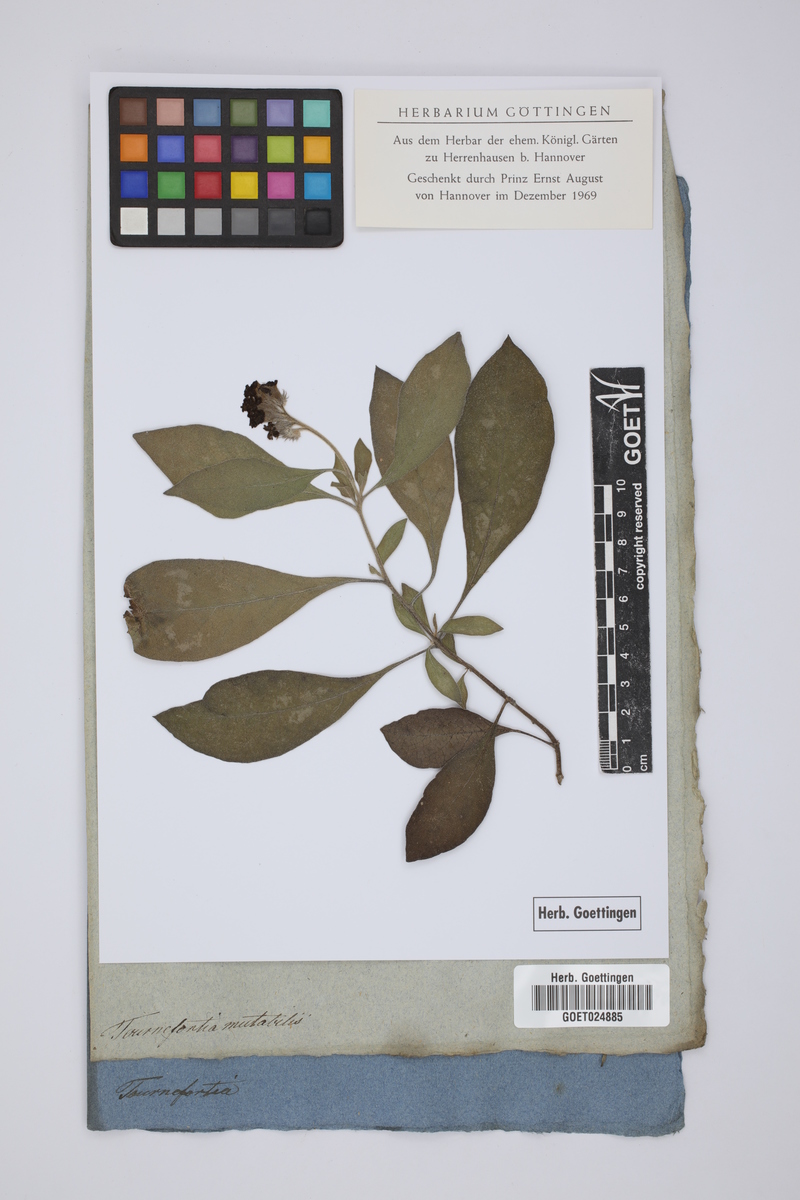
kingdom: Plantae
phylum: Tracheophyta
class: Magnoliopsida
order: Boraginales
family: Heliotropiaceae
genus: Tournefortia
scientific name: Tournefortia mutabilis
